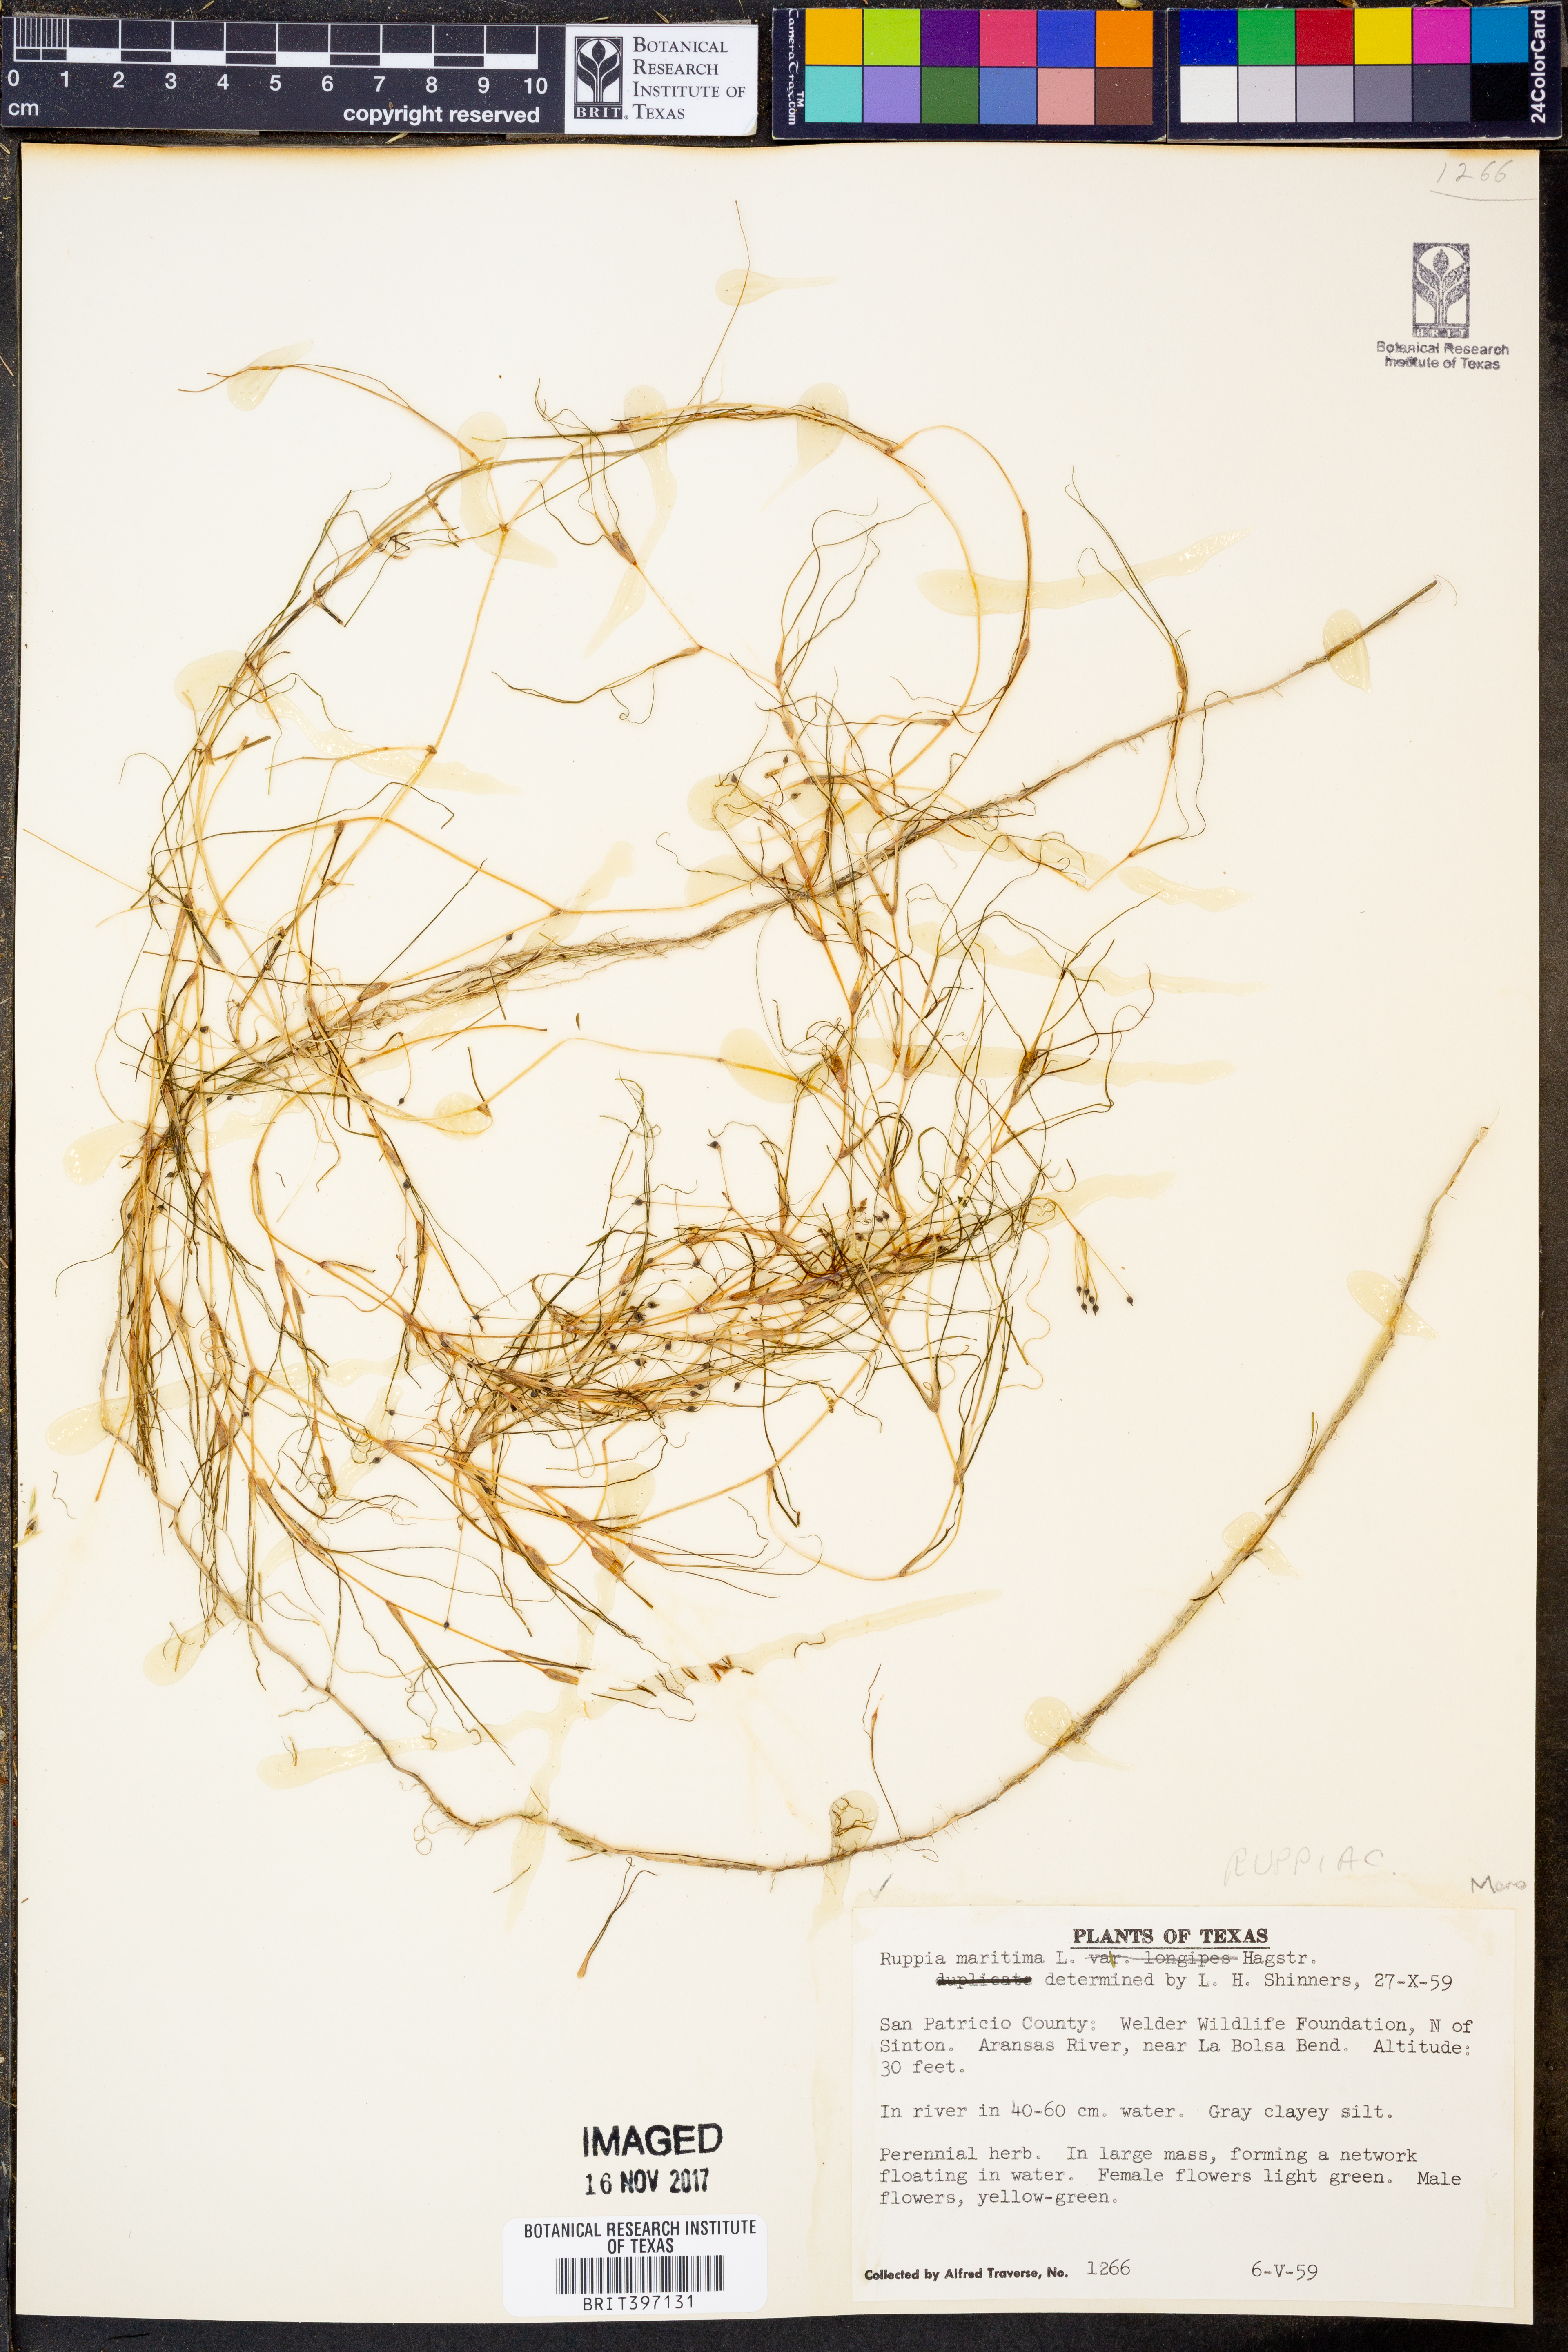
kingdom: Plantae
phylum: Tracheophyta
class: Liliopsida
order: Alismatales
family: Ruppiaceae
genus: Ruppia
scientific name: Ruppia maritima
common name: Beaked tasselweed
